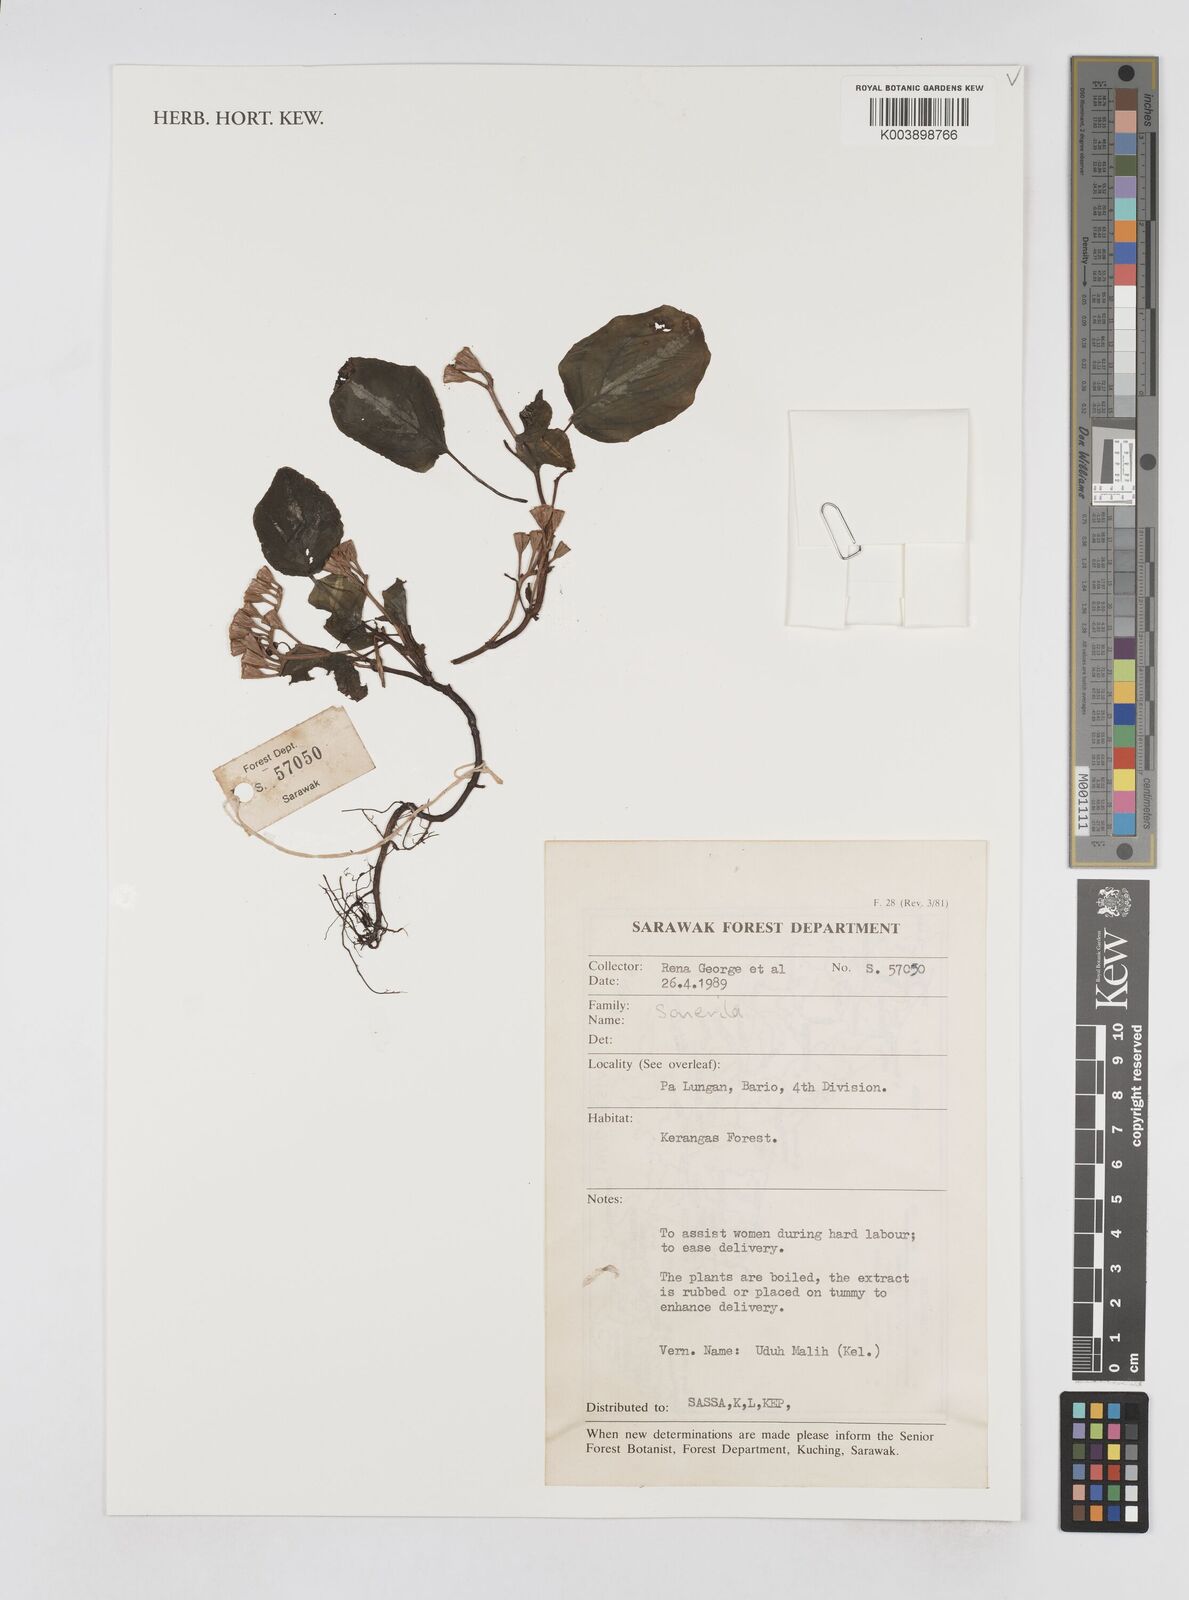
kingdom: Plantae
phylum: Tracheophyta
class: Magnoliopsida
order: Myrtales
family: Melastomataceae
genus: Sonerila
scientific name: Sonerila
